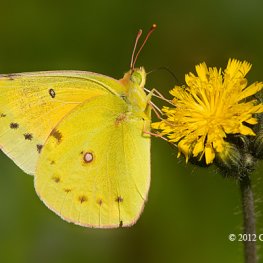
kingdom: Animalia
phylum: Arthropoda
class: Insecta
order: Lepidoptera
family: Pieridae
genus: Colias
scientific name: Colias eurytheme
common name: Orange Sulphur
